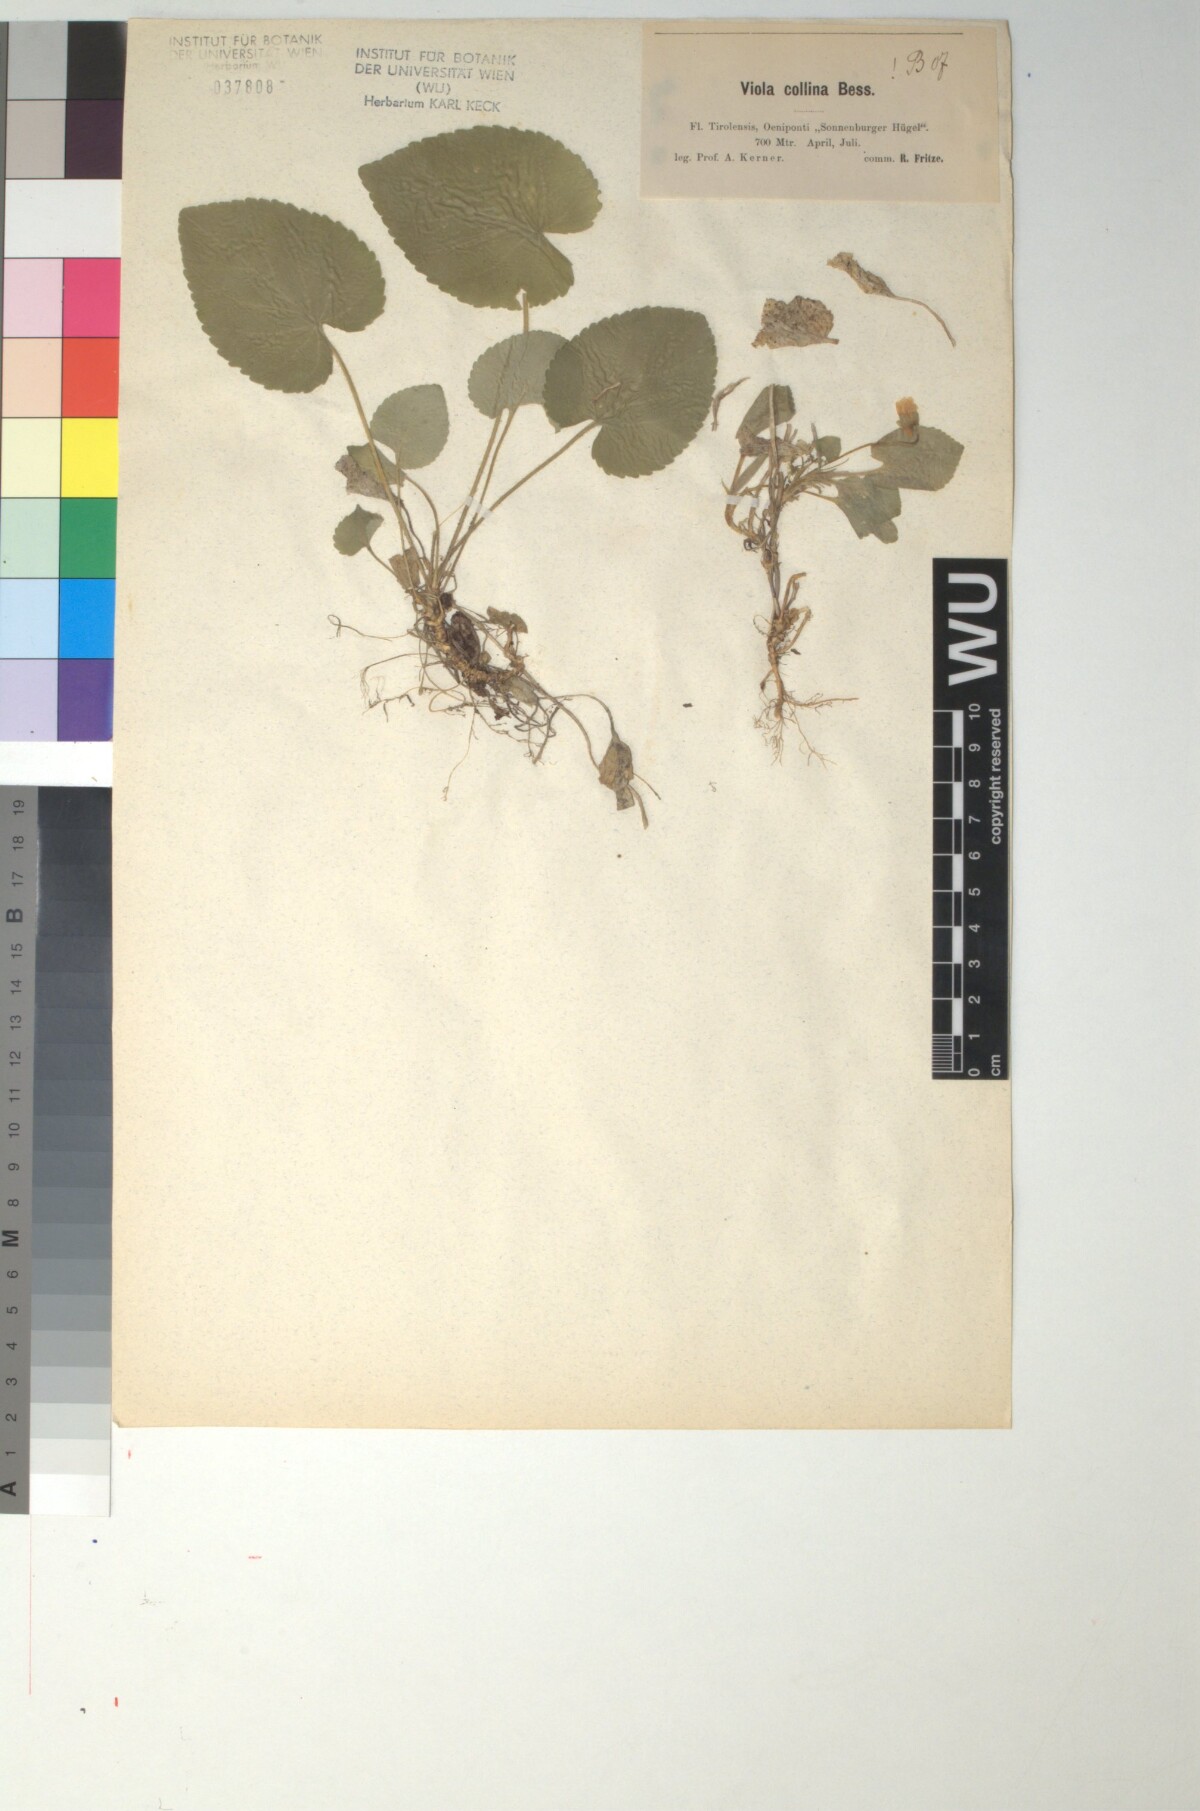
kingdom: Plantae
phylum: Tracheophyta
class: Magnoliopsida
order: Malpighiales
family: Violaceae
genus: Viola
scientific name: Viola collina
